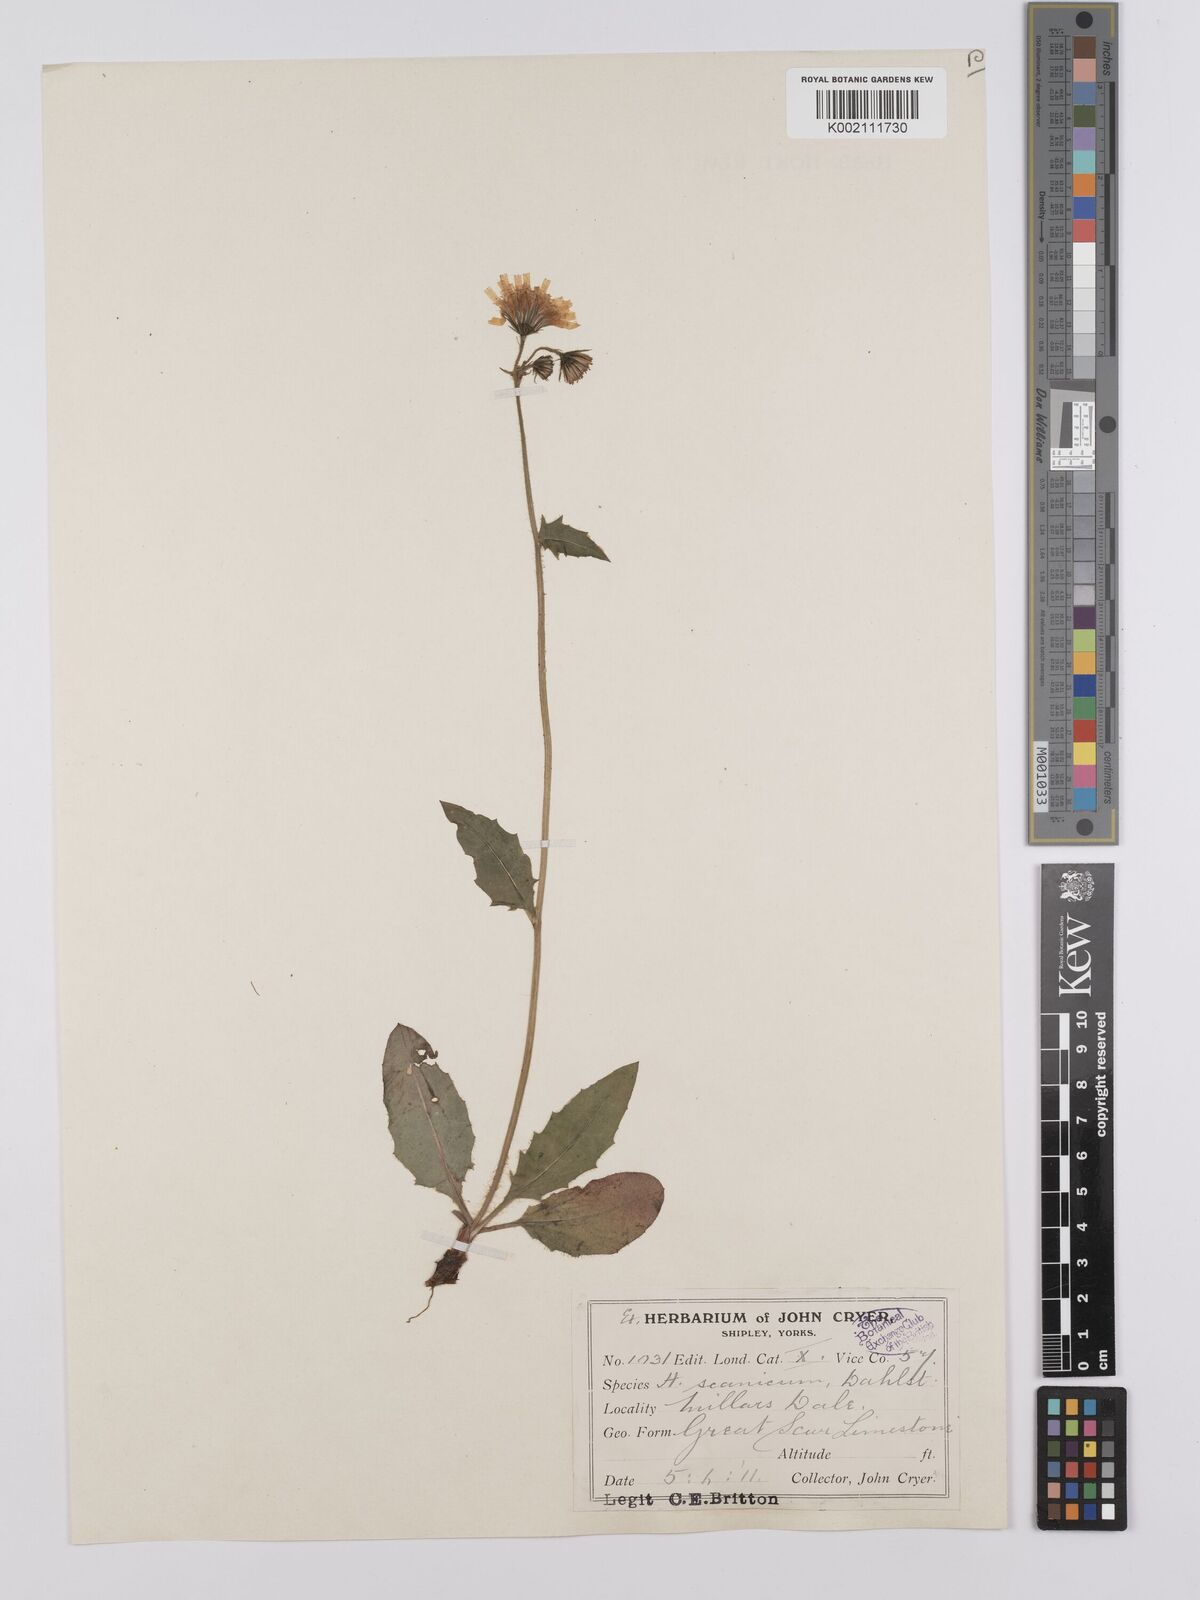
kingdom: Plantae
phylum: Tracheophyta
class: Magnoliopsida
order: Asterales
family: Asteraceae
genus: Hieracium
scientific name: Hieracium
